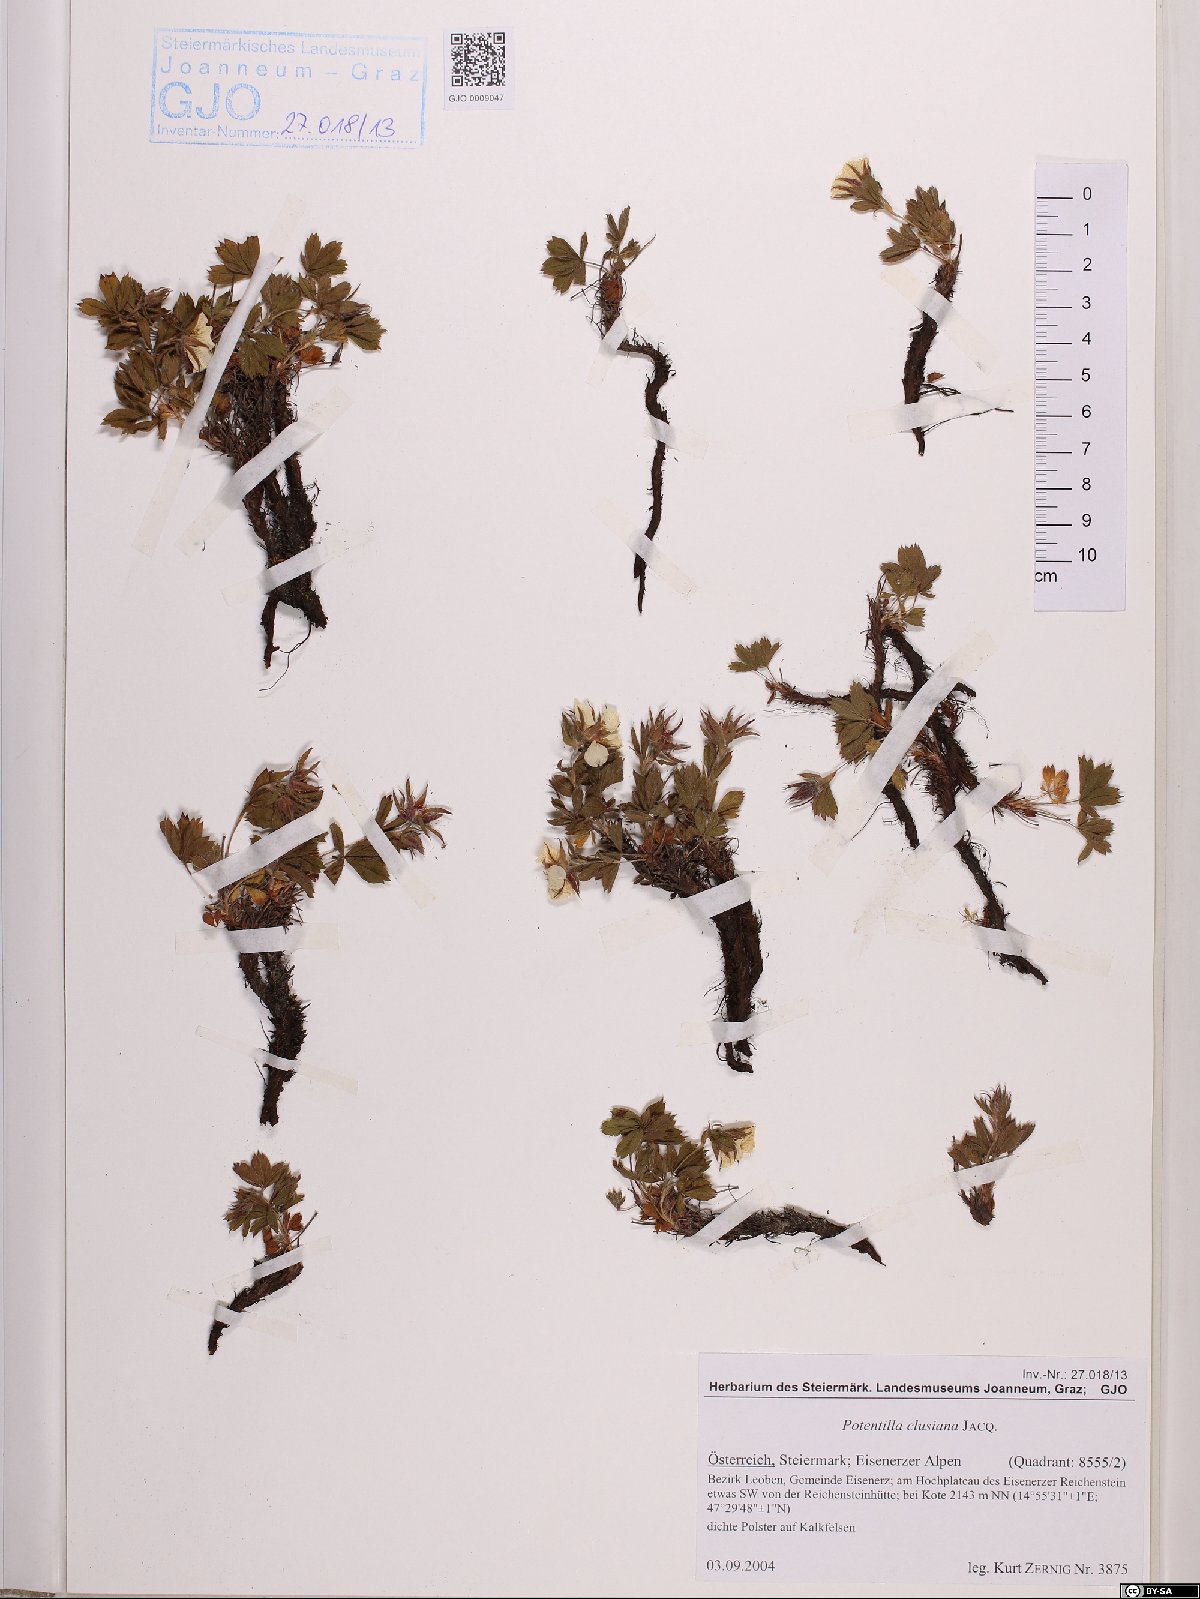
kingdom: Plantae
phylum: Tracheophyta
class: Magnoliopsida
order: Rosales
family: Rosaceae
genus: Potentilla
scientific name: Potentilla clusiana
